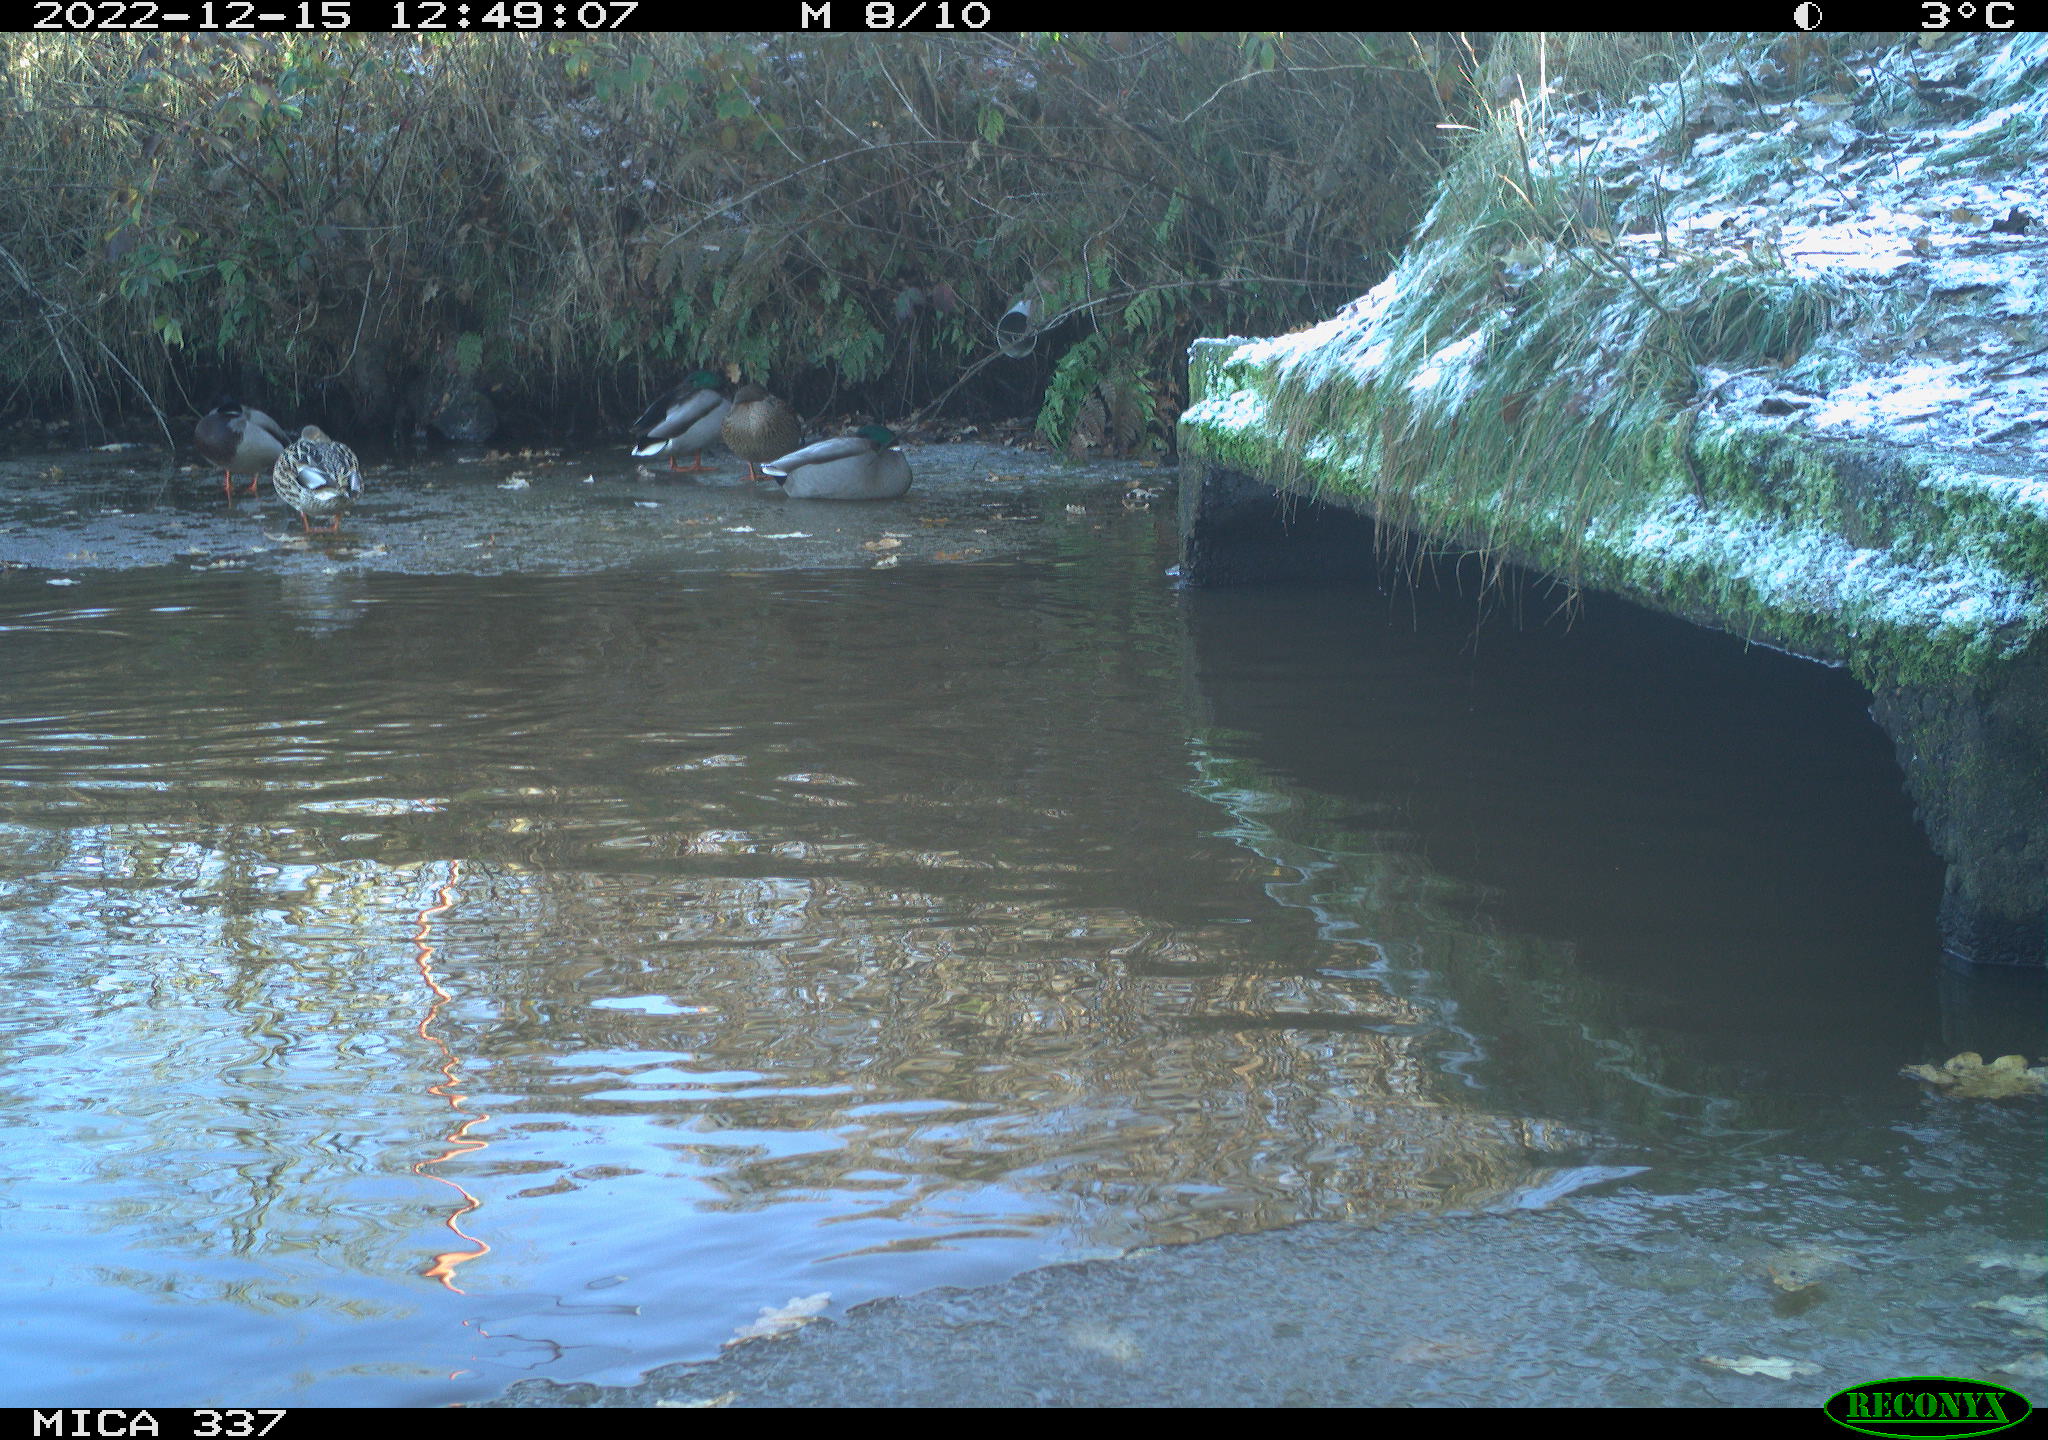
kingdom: Animalia
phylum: Chordata
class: Aves
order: Anseriformes
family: Anatidae
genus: Anas
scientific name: Anas platyrhynchos
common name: Mallard
